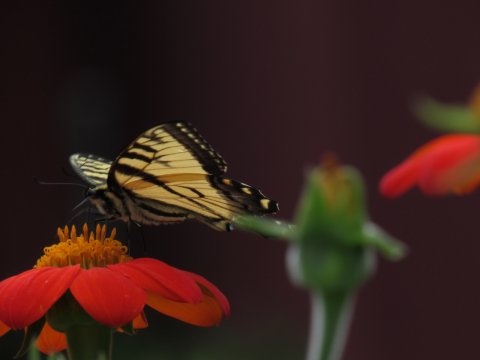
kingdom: Animalia
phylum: Arthropoda
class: Insecta
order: Lepidoptera
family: Papilionidae
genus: Pterourus
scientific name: Pterourus
